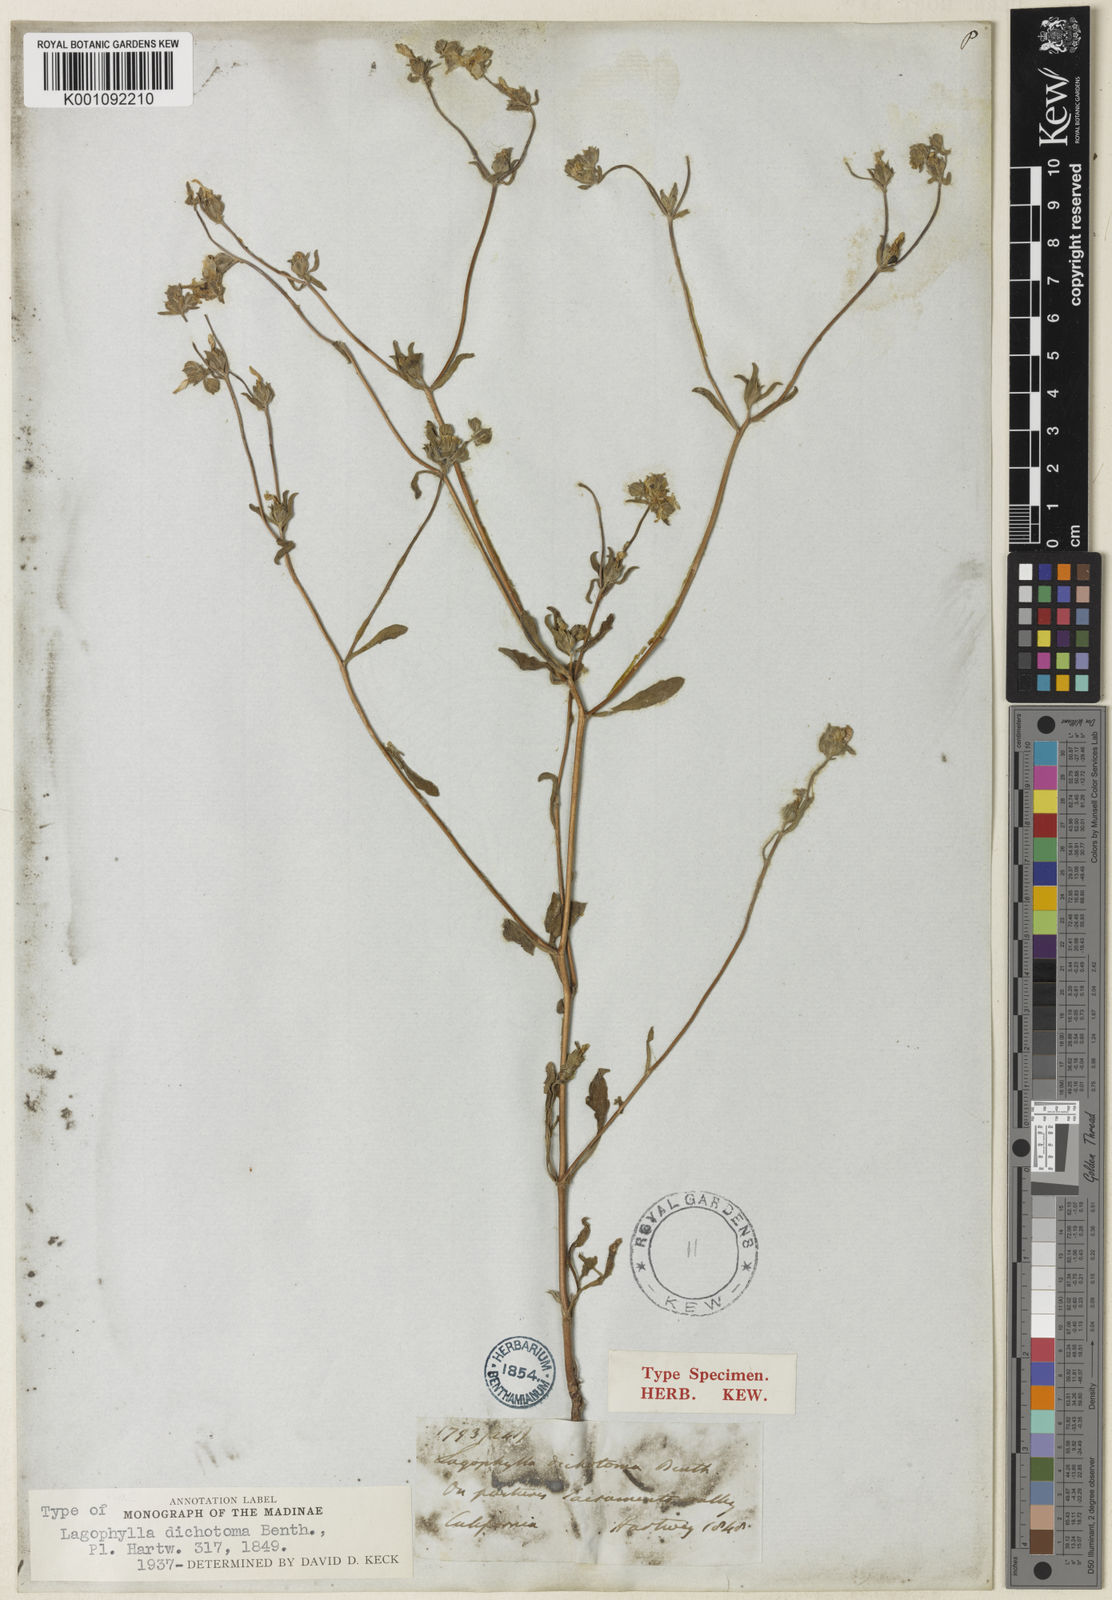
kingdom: Plantae
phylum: Tracheophyta
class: Magnoliopsida
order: Asterales
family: Asteraceae
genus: Lagophylla
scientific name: Lagophylla dichotoma
